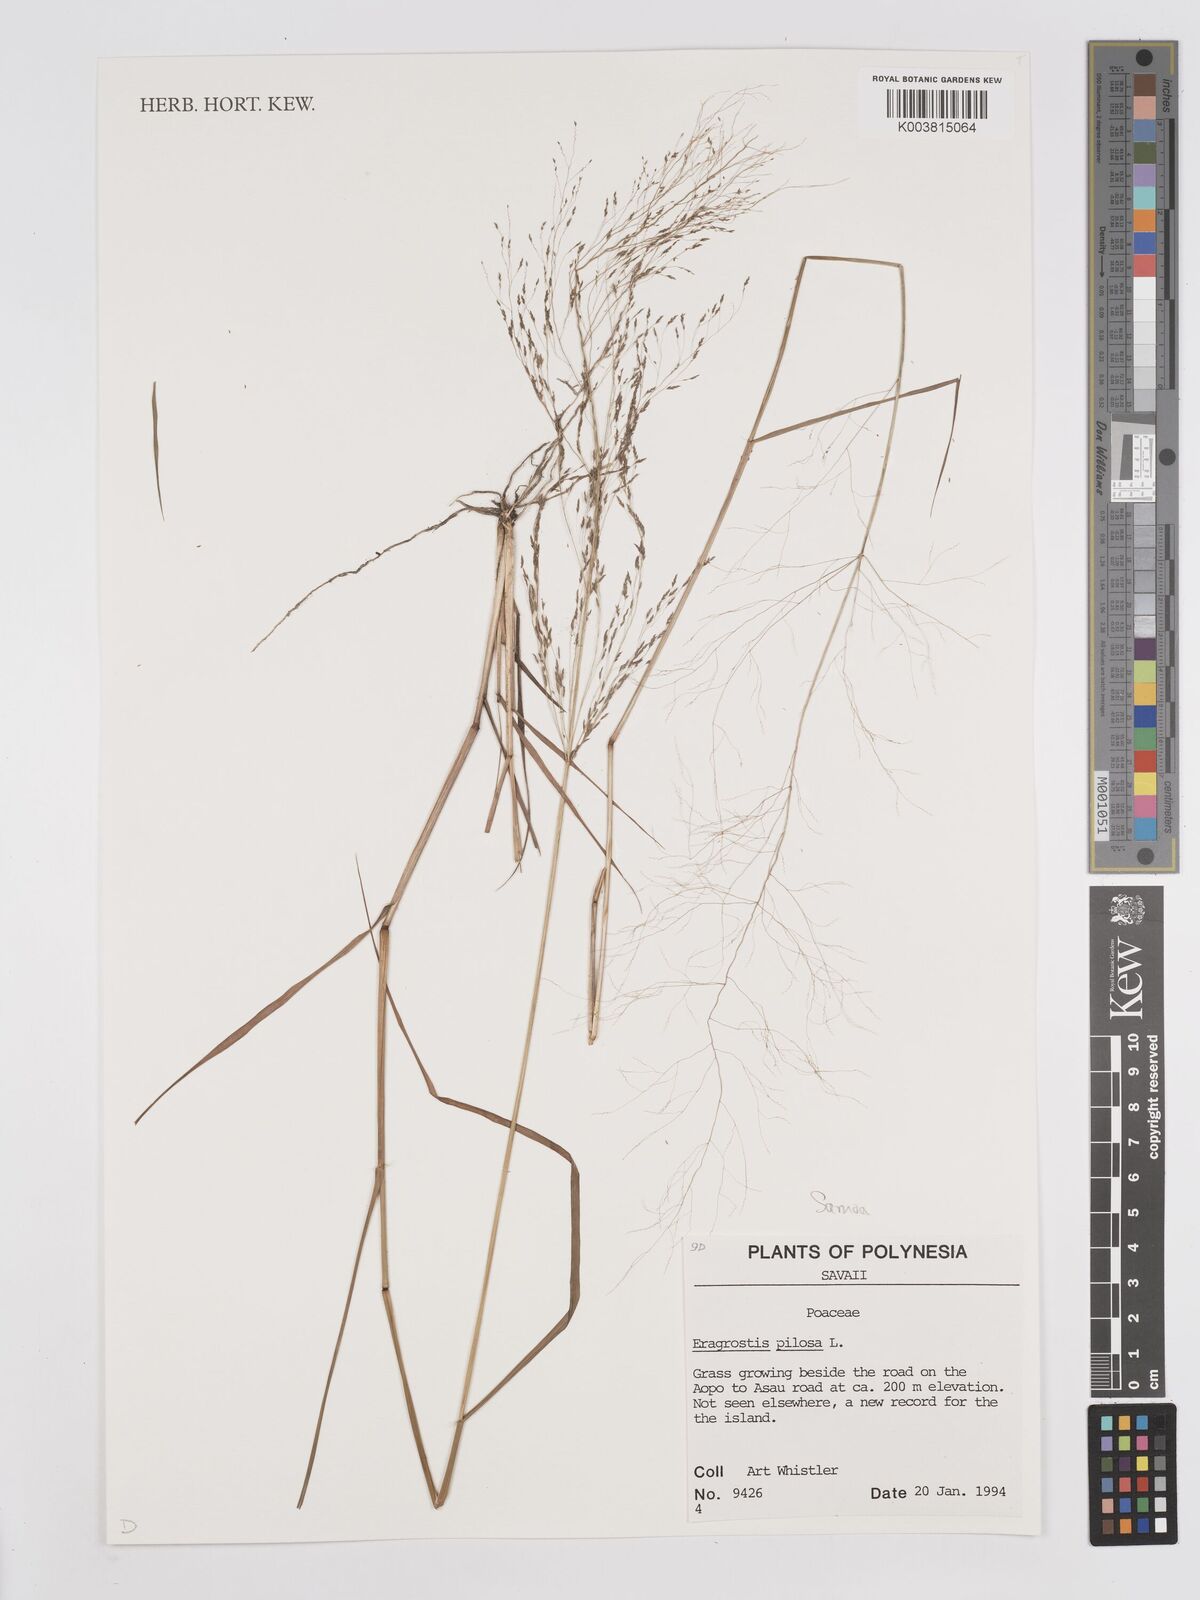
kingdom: Plantae
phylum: Tracheophyta
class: Liliopsida
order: Poales
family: Poaceae
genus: Eragrostis
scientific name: Eragrostis pilosa
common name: Indian lovegrass
